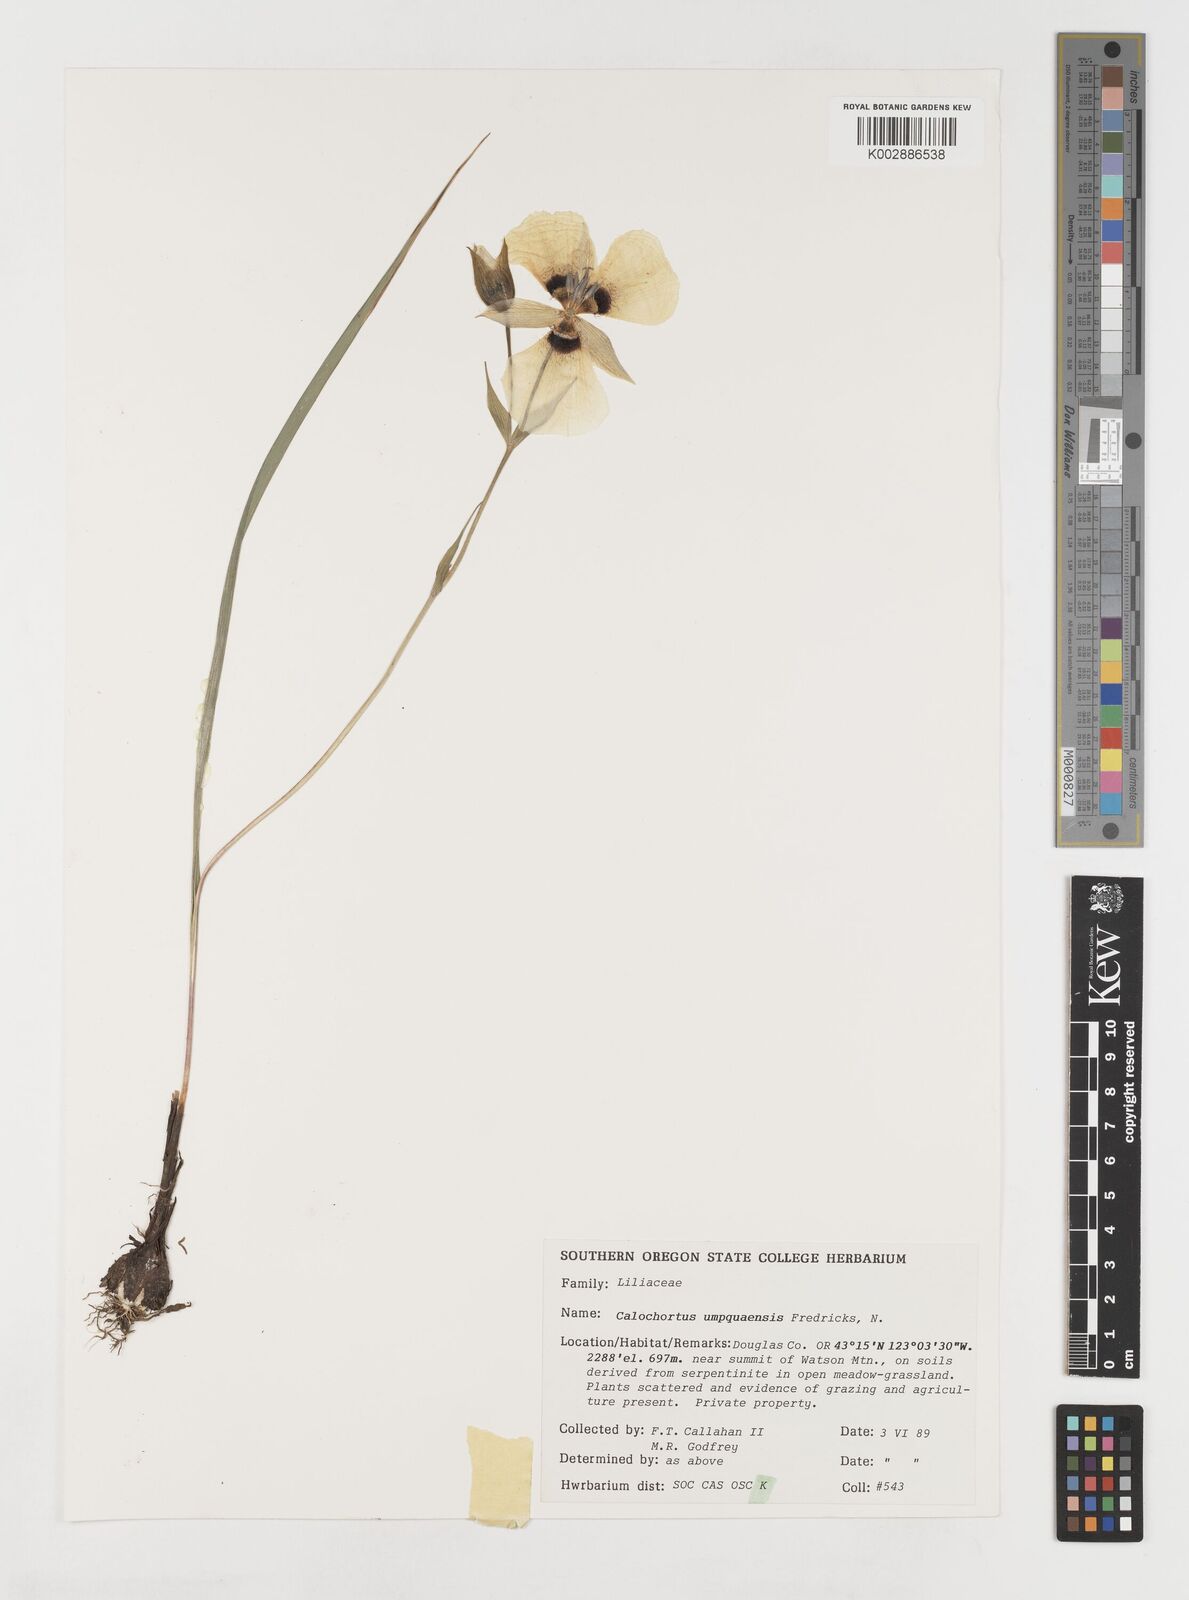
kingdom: Plantae
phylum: Tracheophyta
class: Liliopsida
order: Liliales
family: Liliaceae
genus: Calochortus
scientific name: Calochortus umpquaensis
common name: Umpqua mariposa-lily
